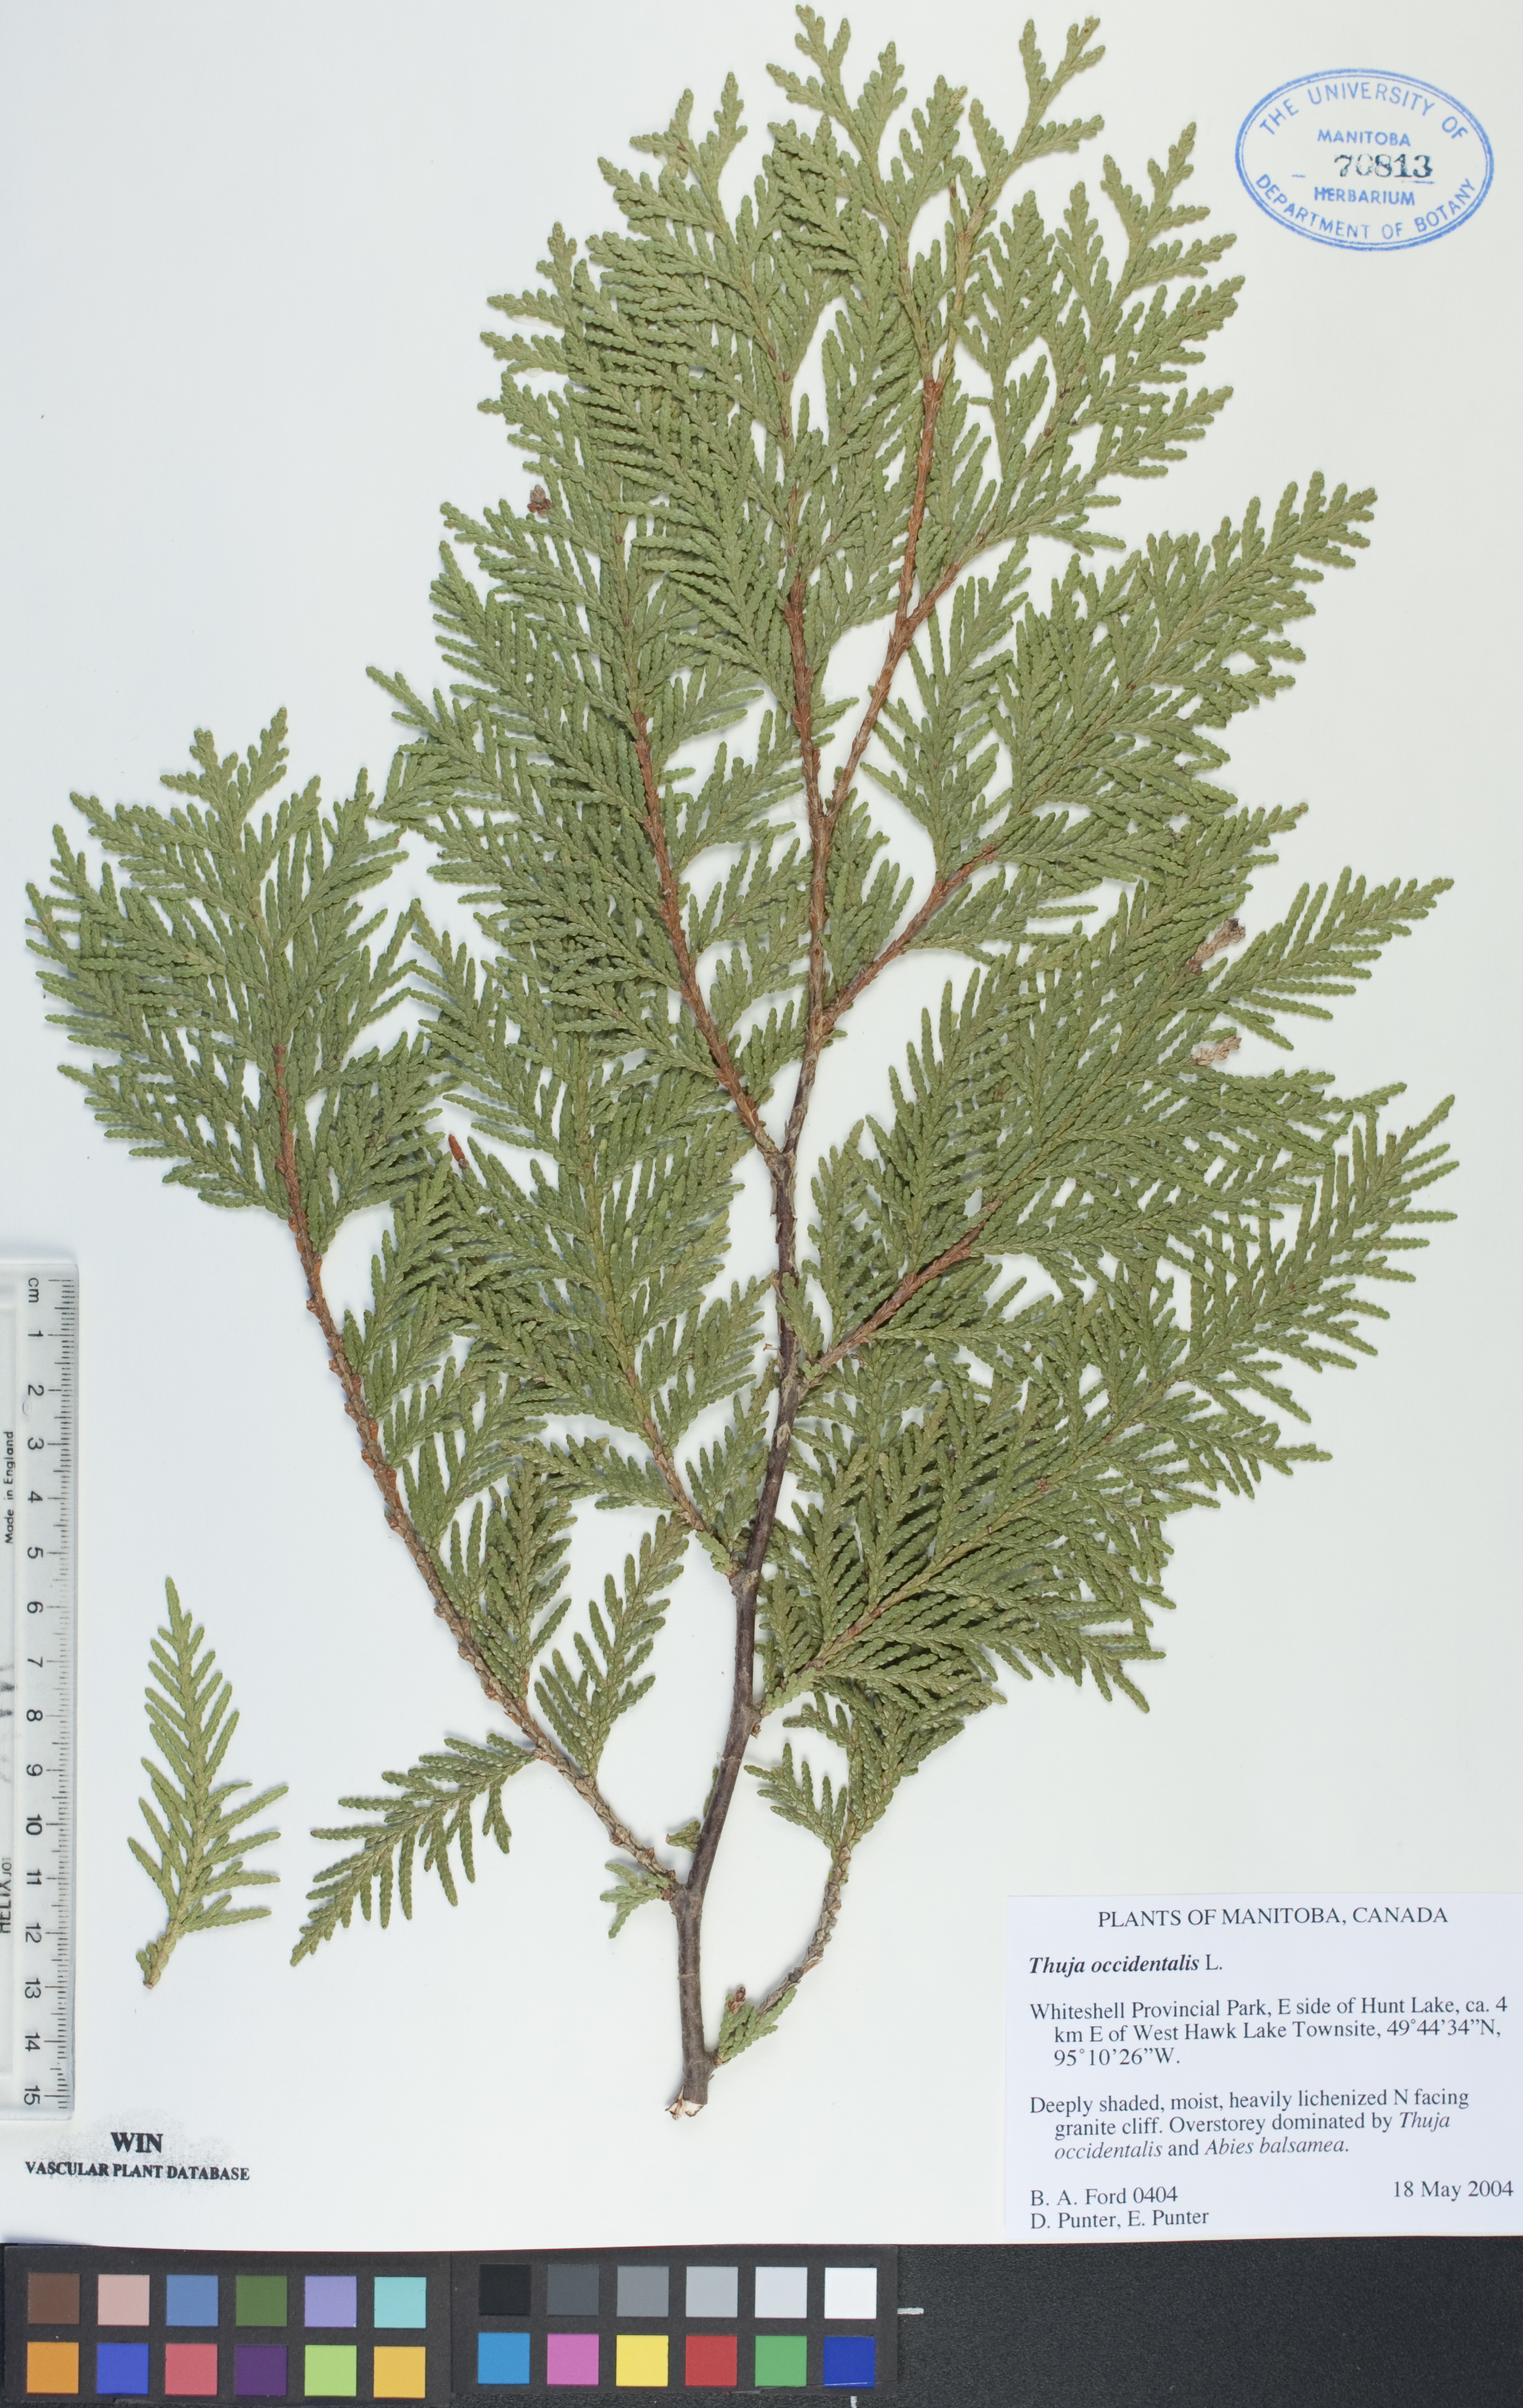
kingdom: Plantae
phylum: Tracheophyta
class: Pinopsida
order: Pinales
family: Cupressaceae
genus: Thuja
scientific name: Thuja occidentalis
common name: Northern white-cedar
